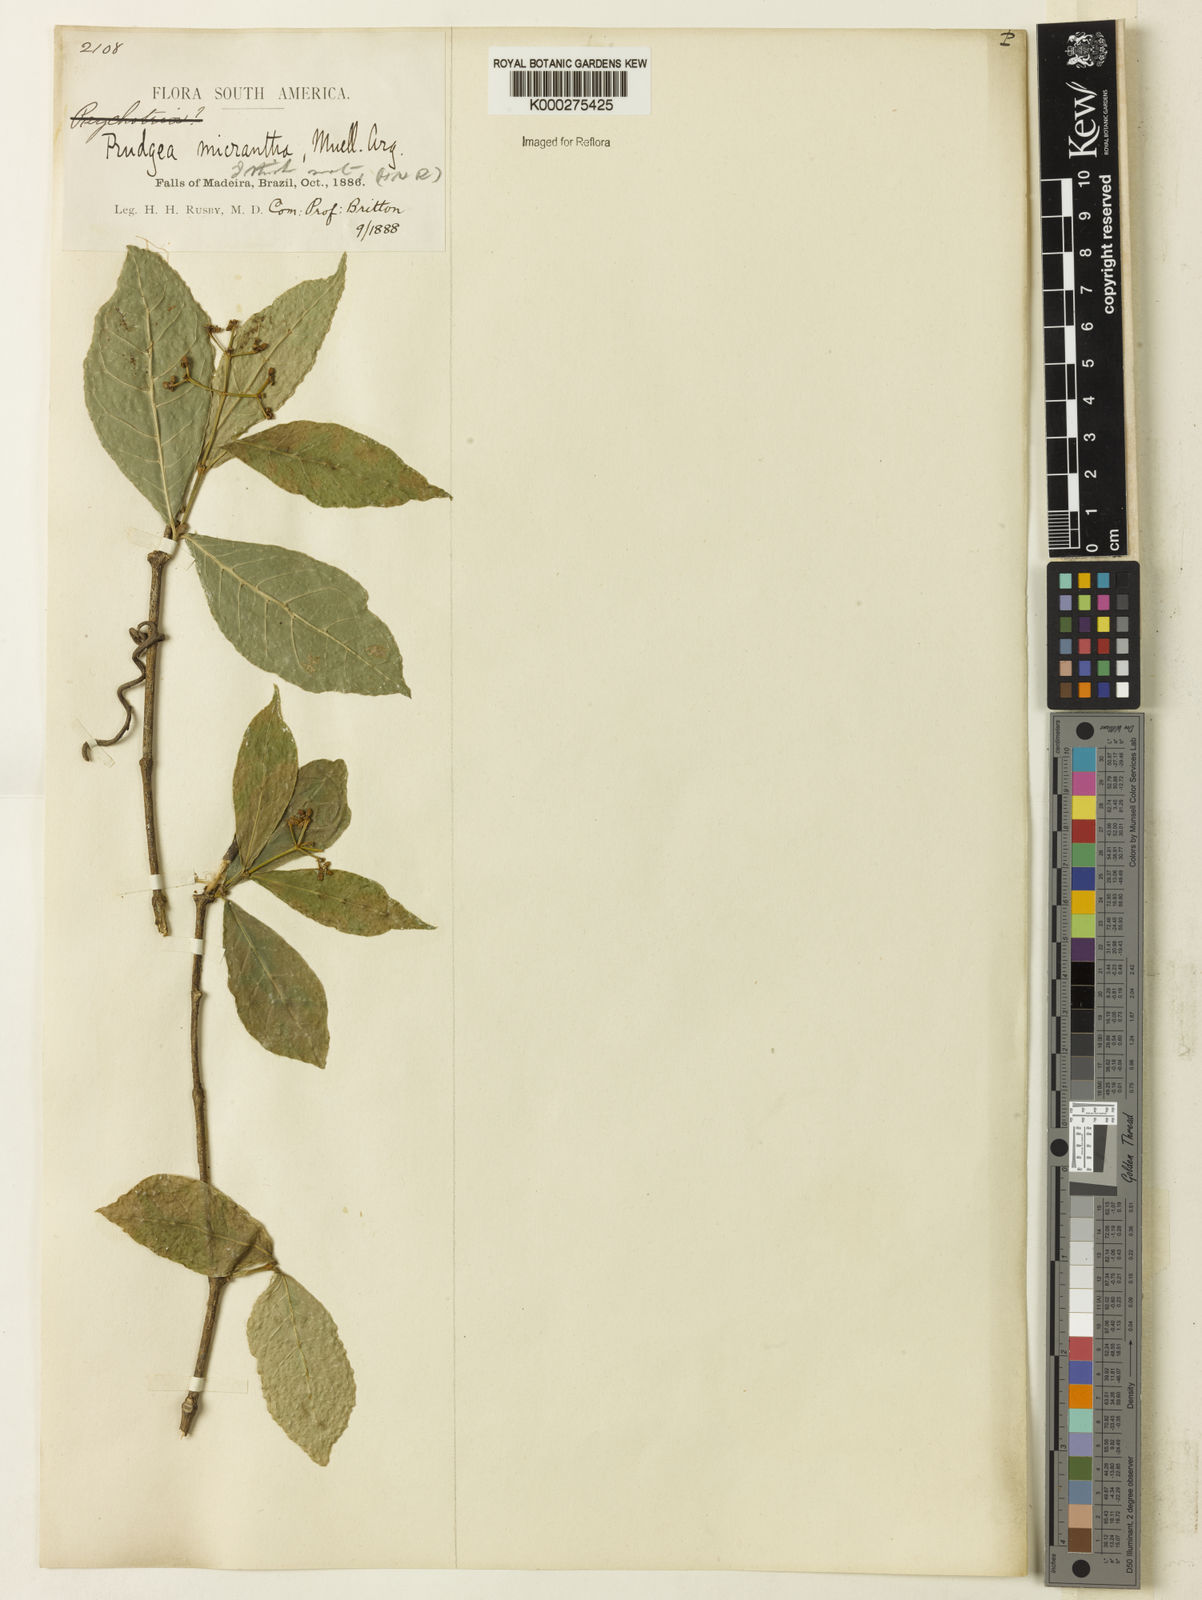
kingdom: Plantae
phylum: Tracheophyta
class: Magnoliopsida
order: Gentianales
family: Rubiaceae
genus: Rudgea
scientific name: Rudgea cornifolia
